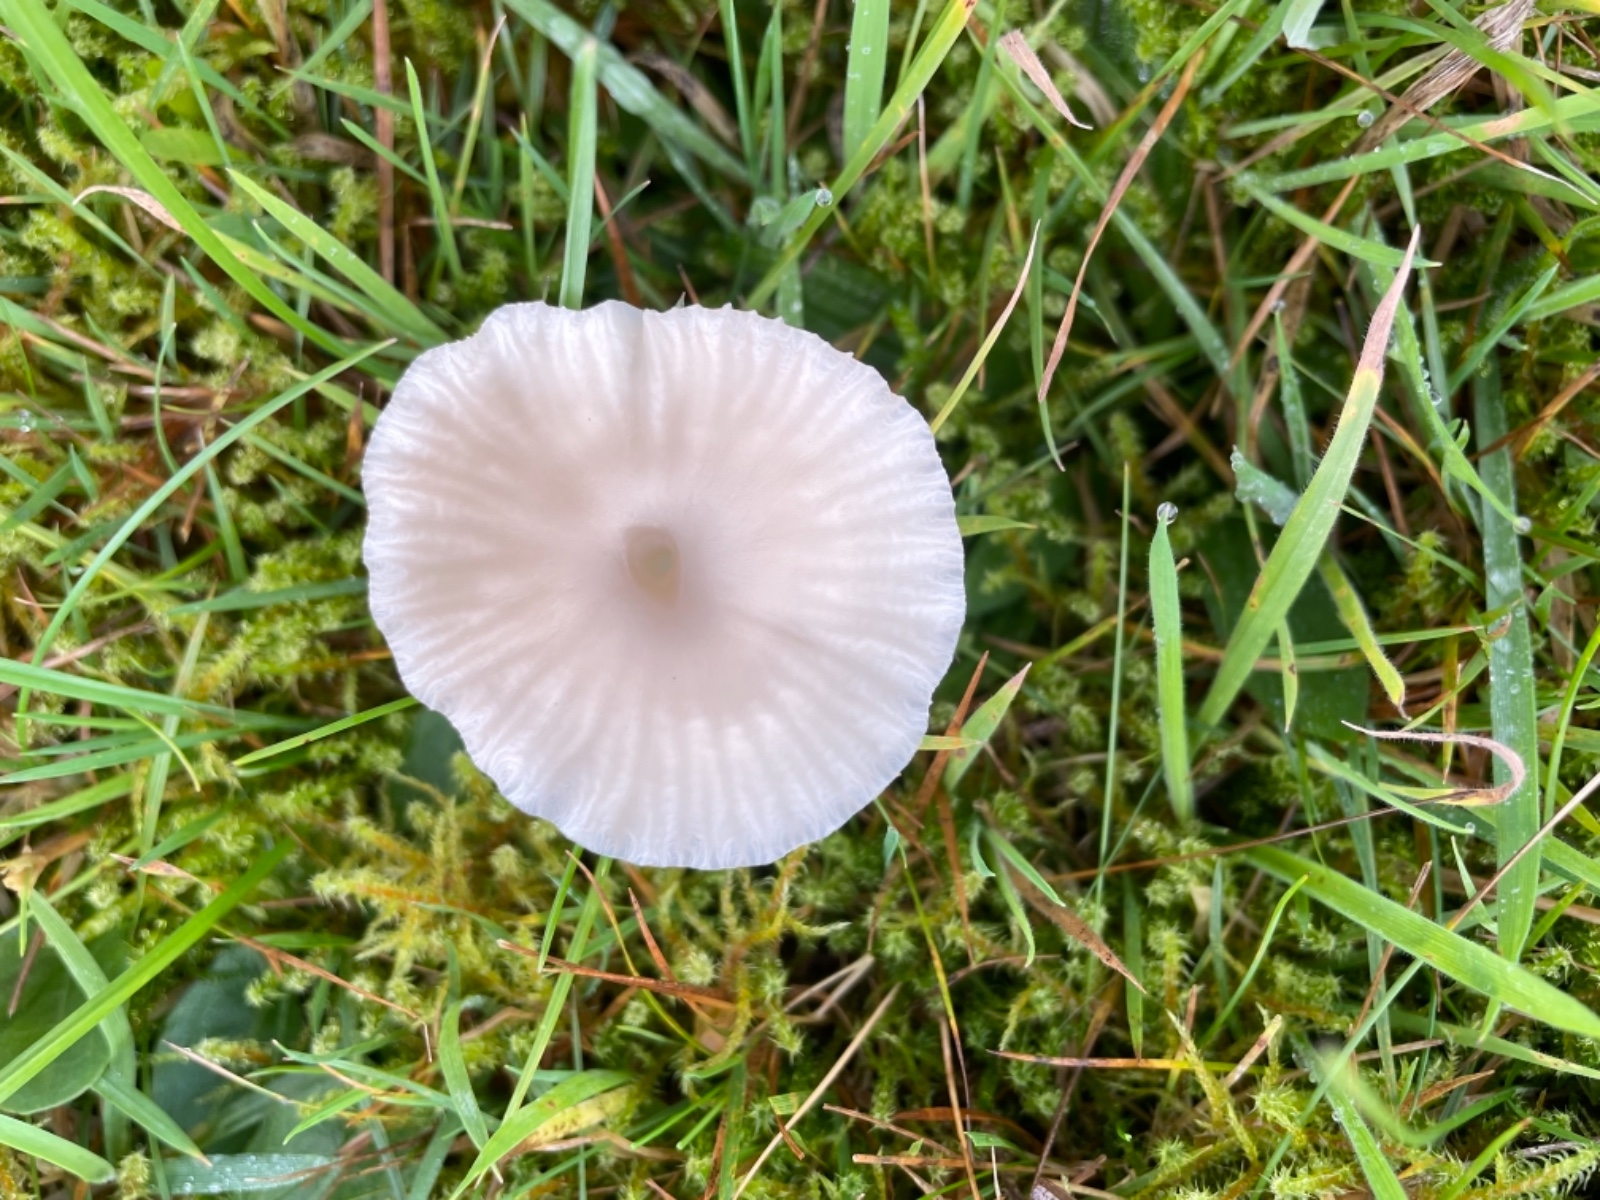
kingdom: Fungi
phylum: Basidiomycota
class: Agaricomycetes
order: Agaricales
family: Hygrophoraceae
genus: Cuphophyllus
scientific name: Cuphophyllus virgineus
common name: snehvid vokshat
